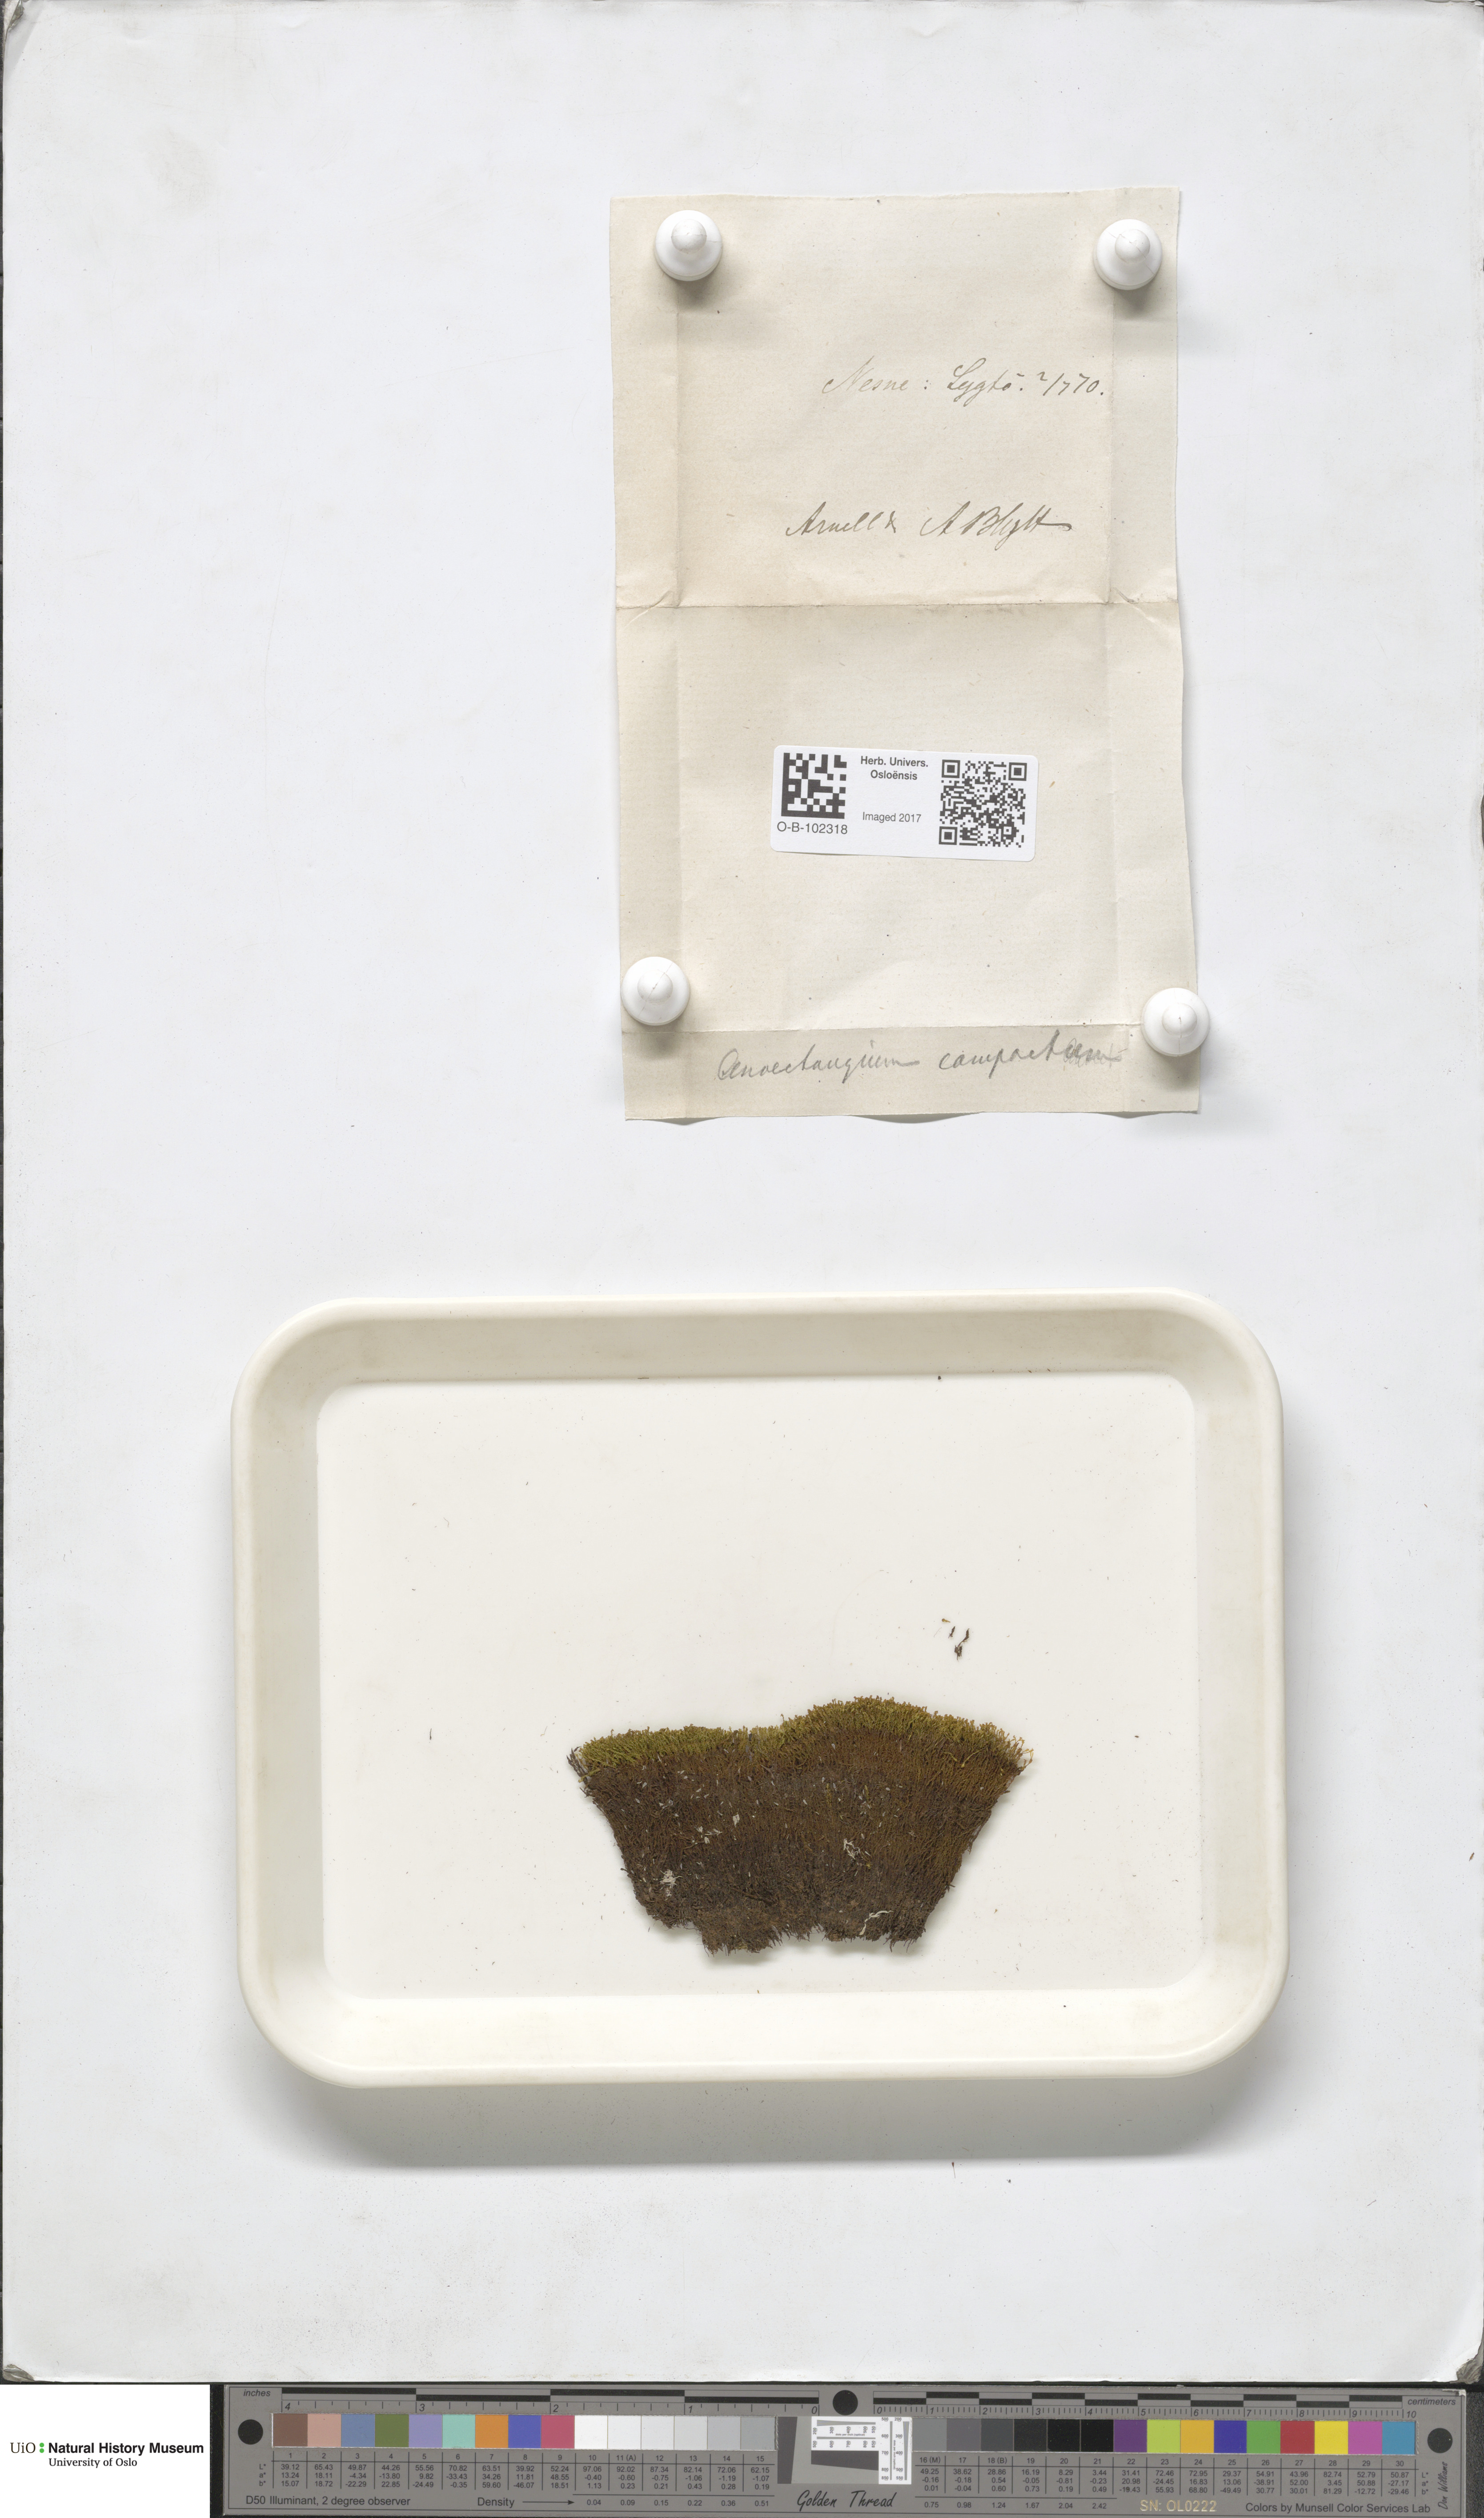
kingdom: Plantae
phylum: Bryophyta
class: Bryopsida
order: Pottiales
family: Pottiaceae
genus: Anoectangium
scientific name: Anoectangium aestivum
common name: Summer-moss
